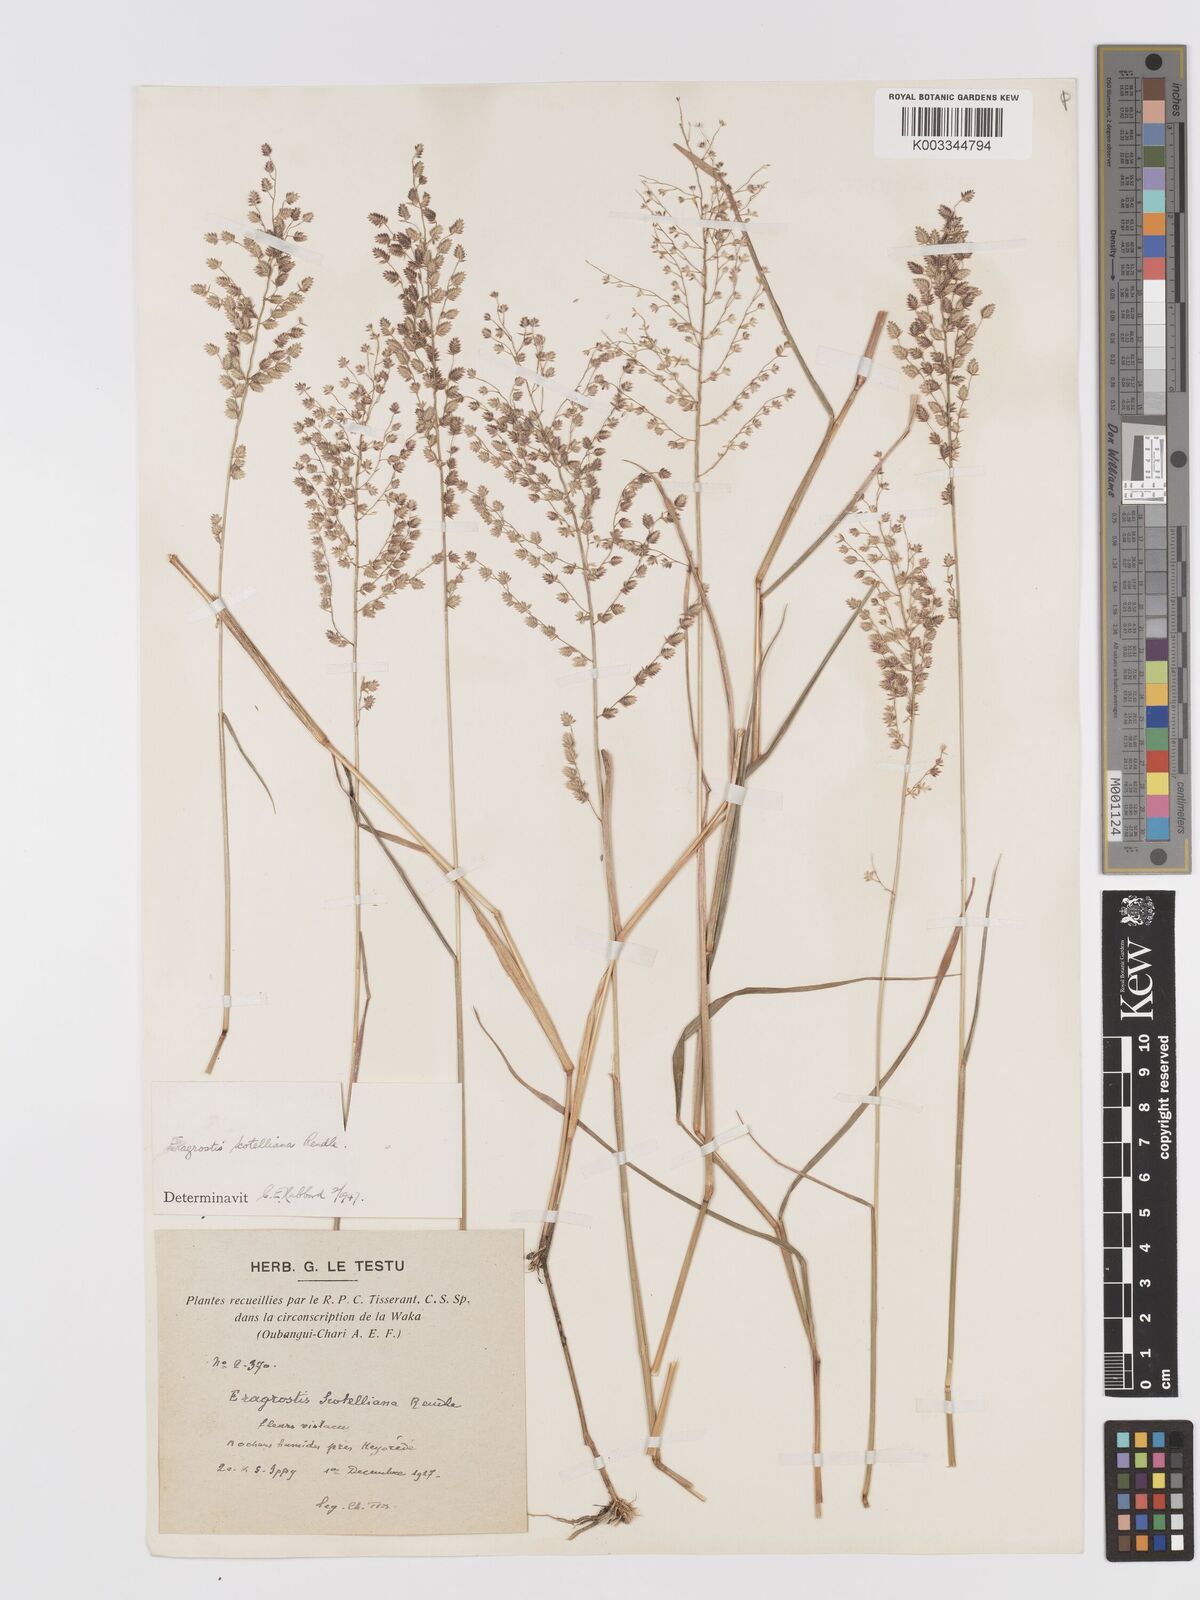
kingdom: Plantae
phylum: Tracheophyta
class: Liliopsida
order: Poales
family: Poaceae
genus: Eragrostis
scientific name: Eragrostis scotelliana
